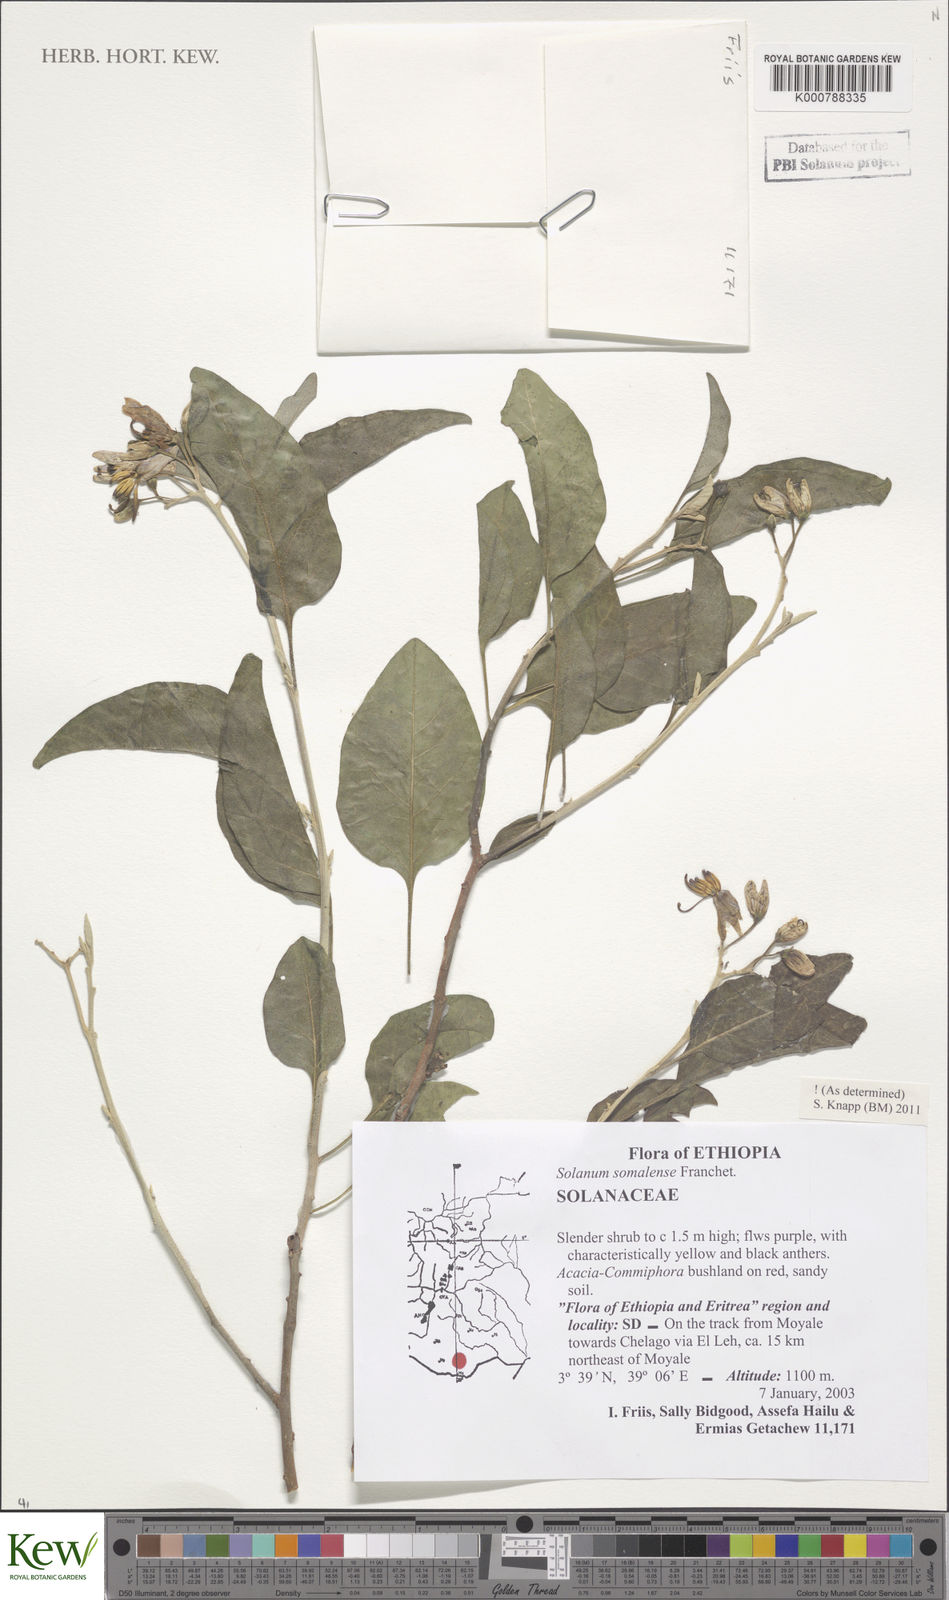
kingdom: Plantae
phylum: Tracheophyta
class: Magnoliopsida
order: Solanales
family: Solanaceae
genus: Solanum
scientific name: Solanum somalense
